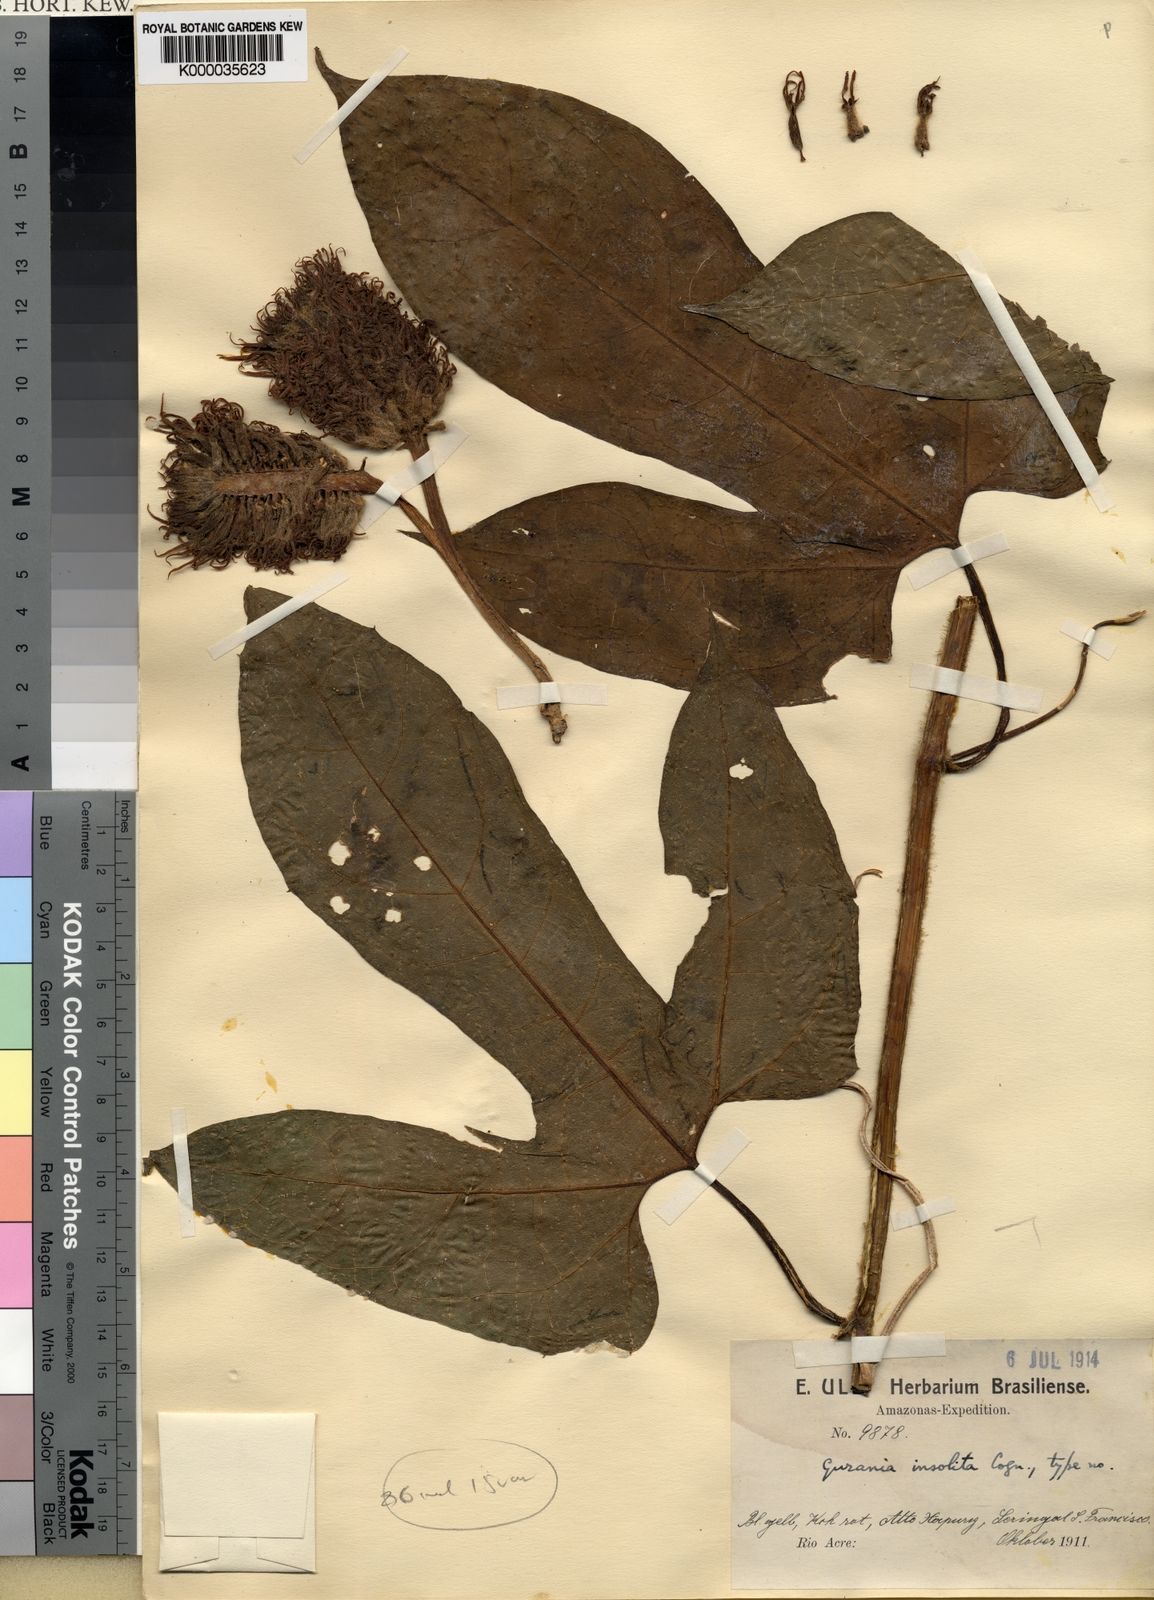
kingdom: Plantae
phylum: Tracheophyta
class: Magnoliopsida
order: Cucurbitales
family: Cucurbitaceae
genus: Gurania
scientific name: Gurania sinuata
